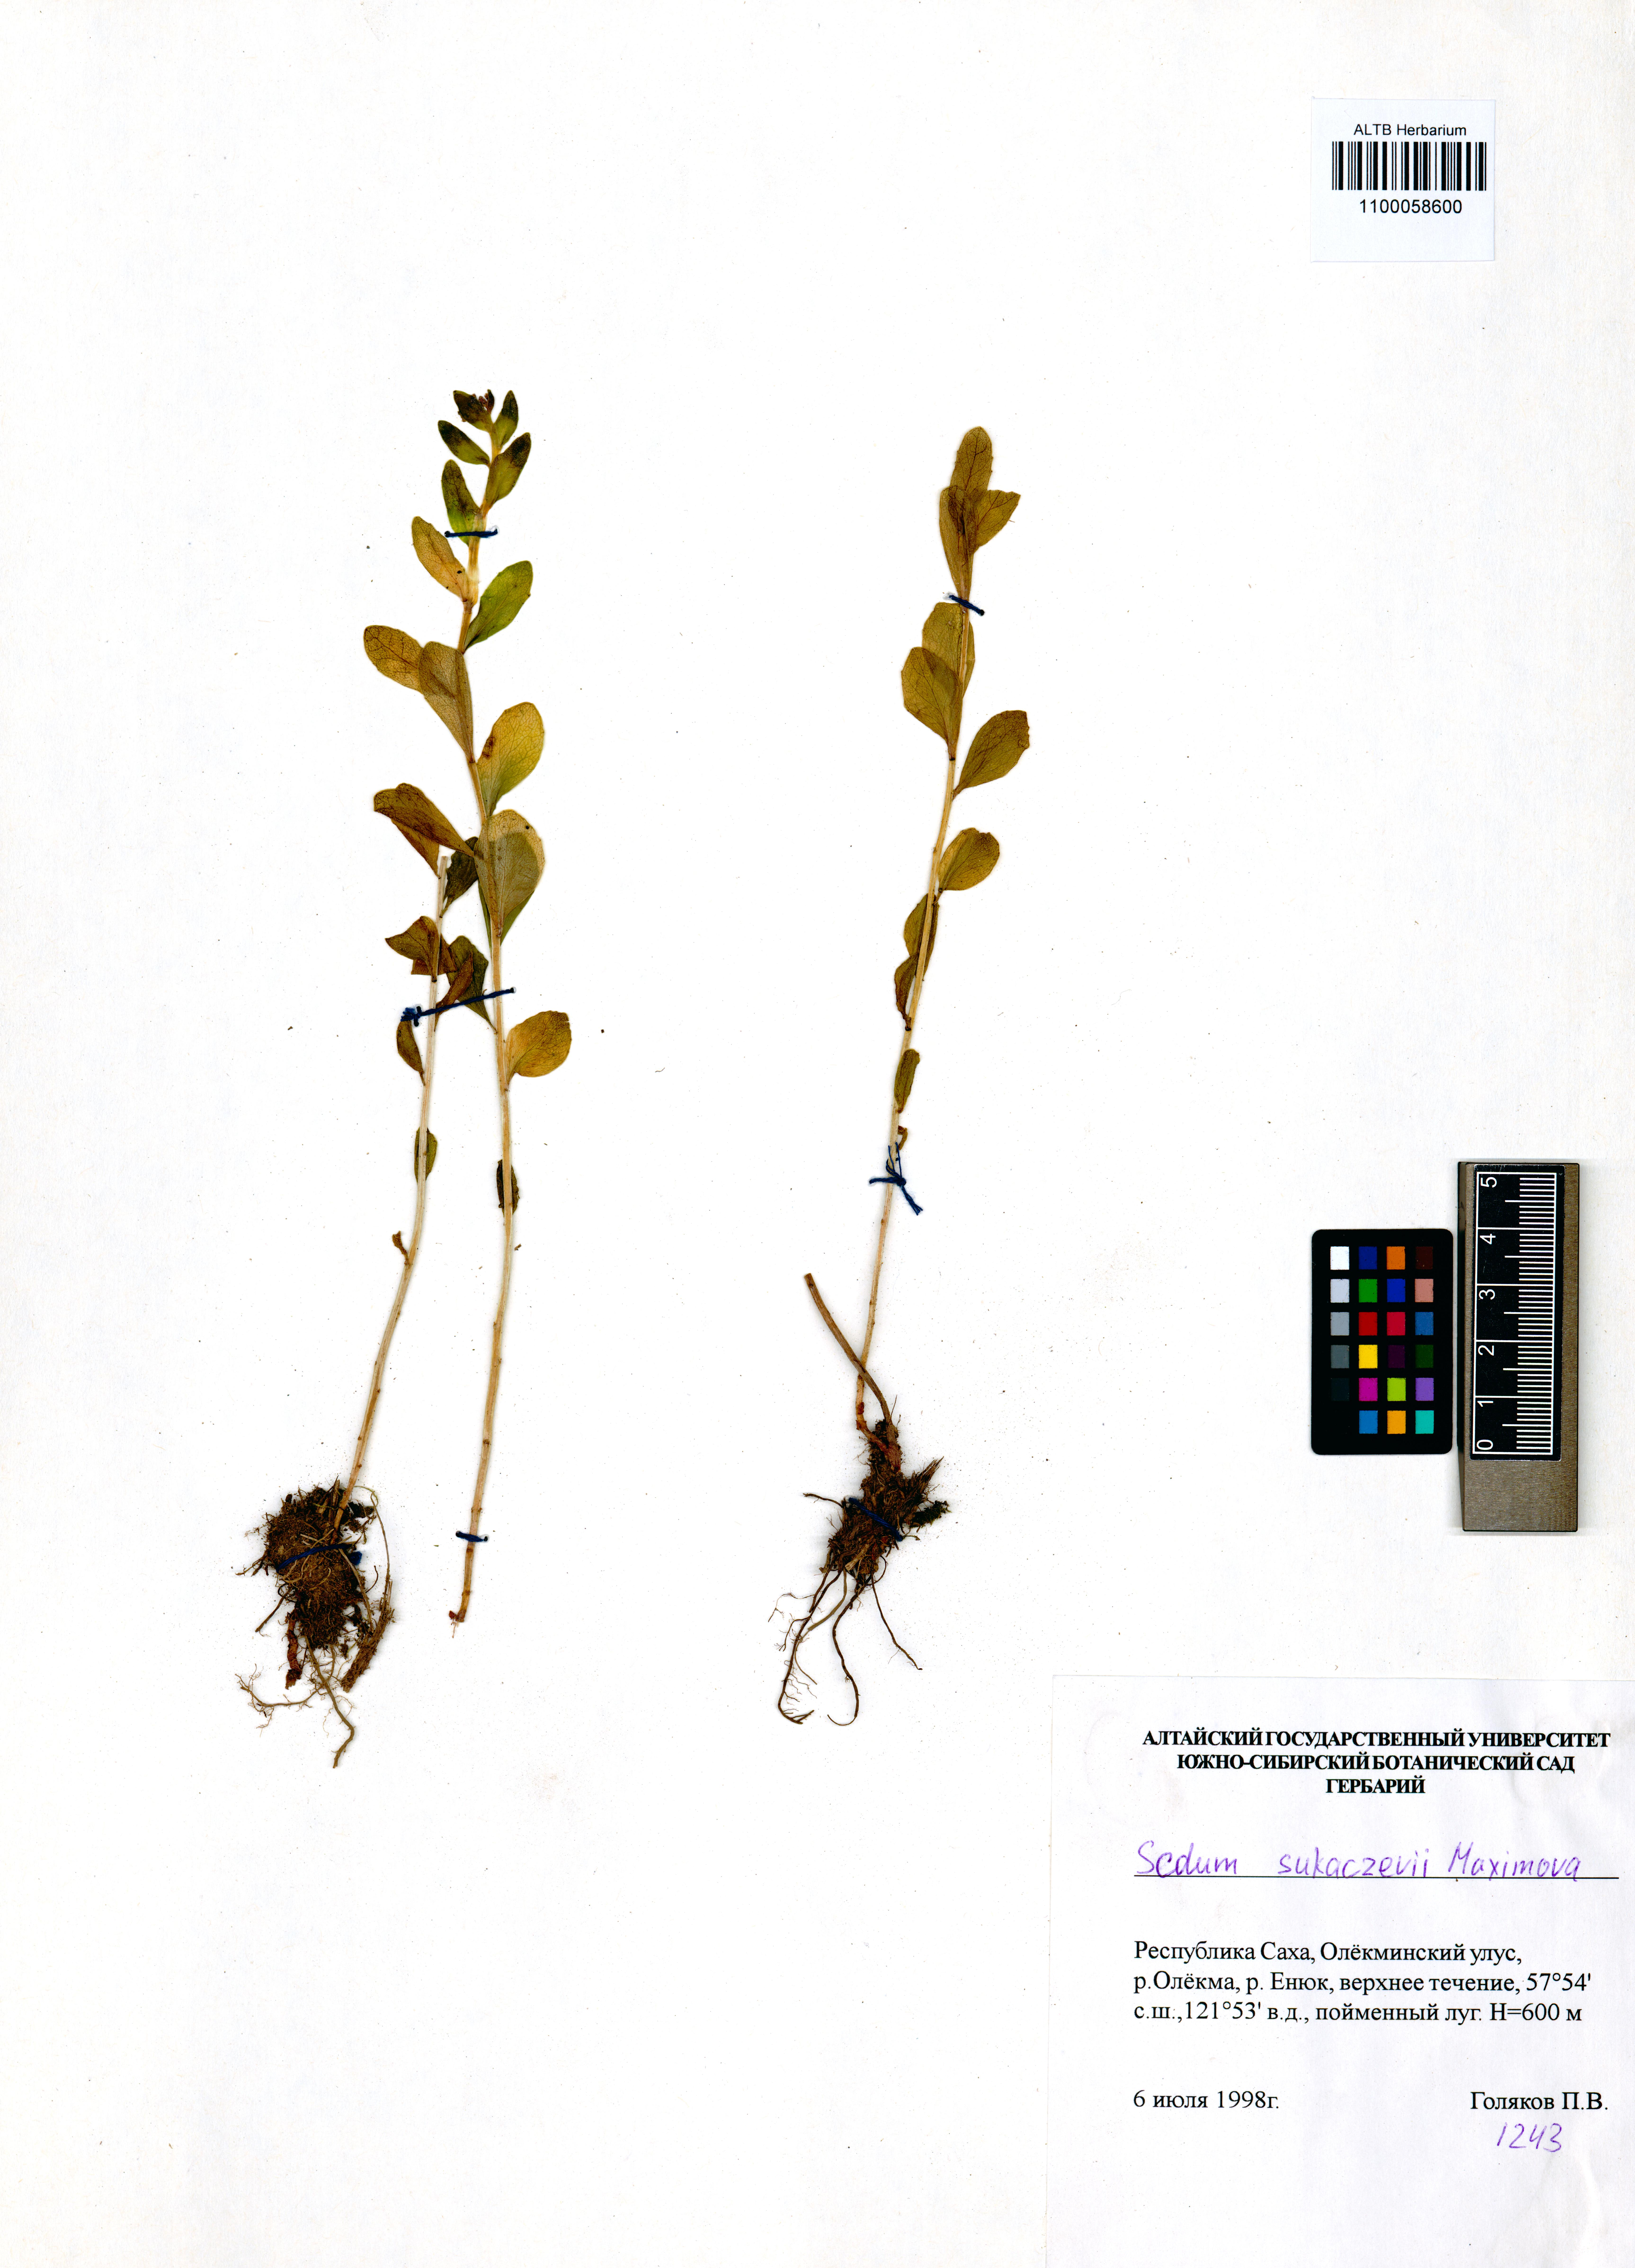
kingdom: Plantae
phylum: Tracheophyta
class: Magnoliopsida
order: Saxifragales
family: Crassulaceae
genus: Hylotelephium
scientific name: Hylotelephium pallescens
